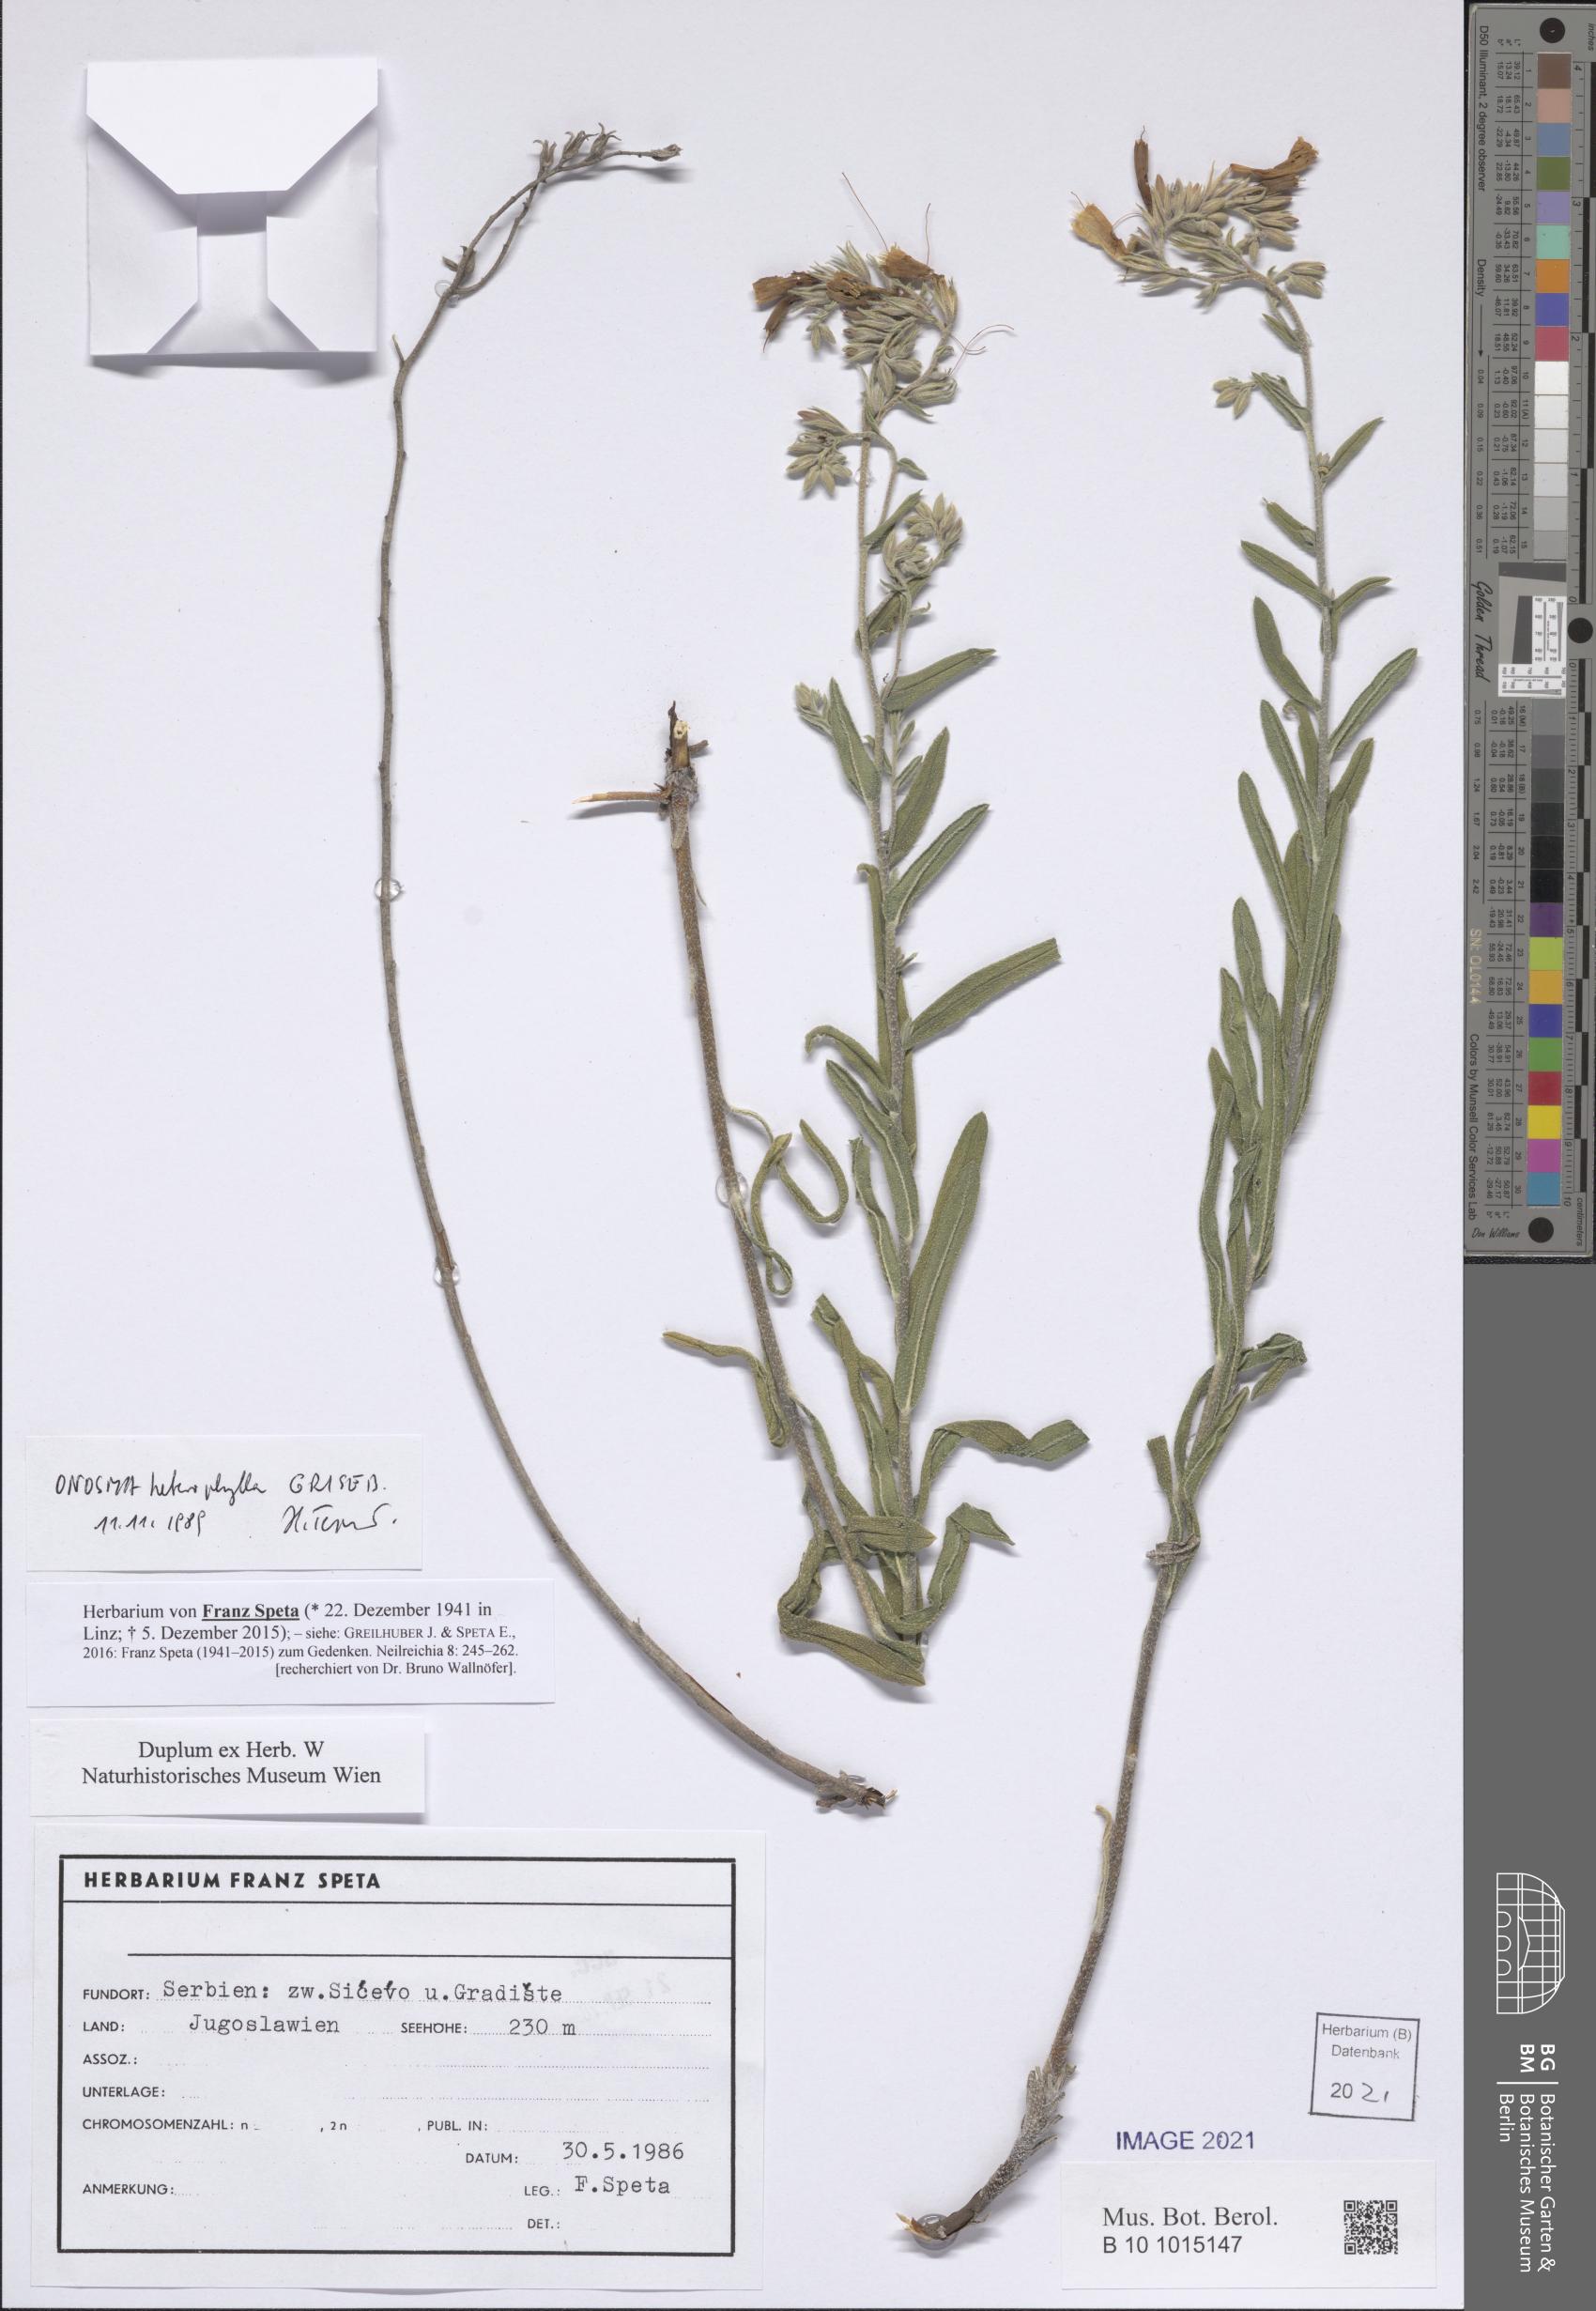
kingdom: Plantae
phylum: Tracheophyta
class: Magnoliopsida
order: Boraginales
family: Boraginaceae
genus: Onosma
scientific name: Onosma heterophylla
